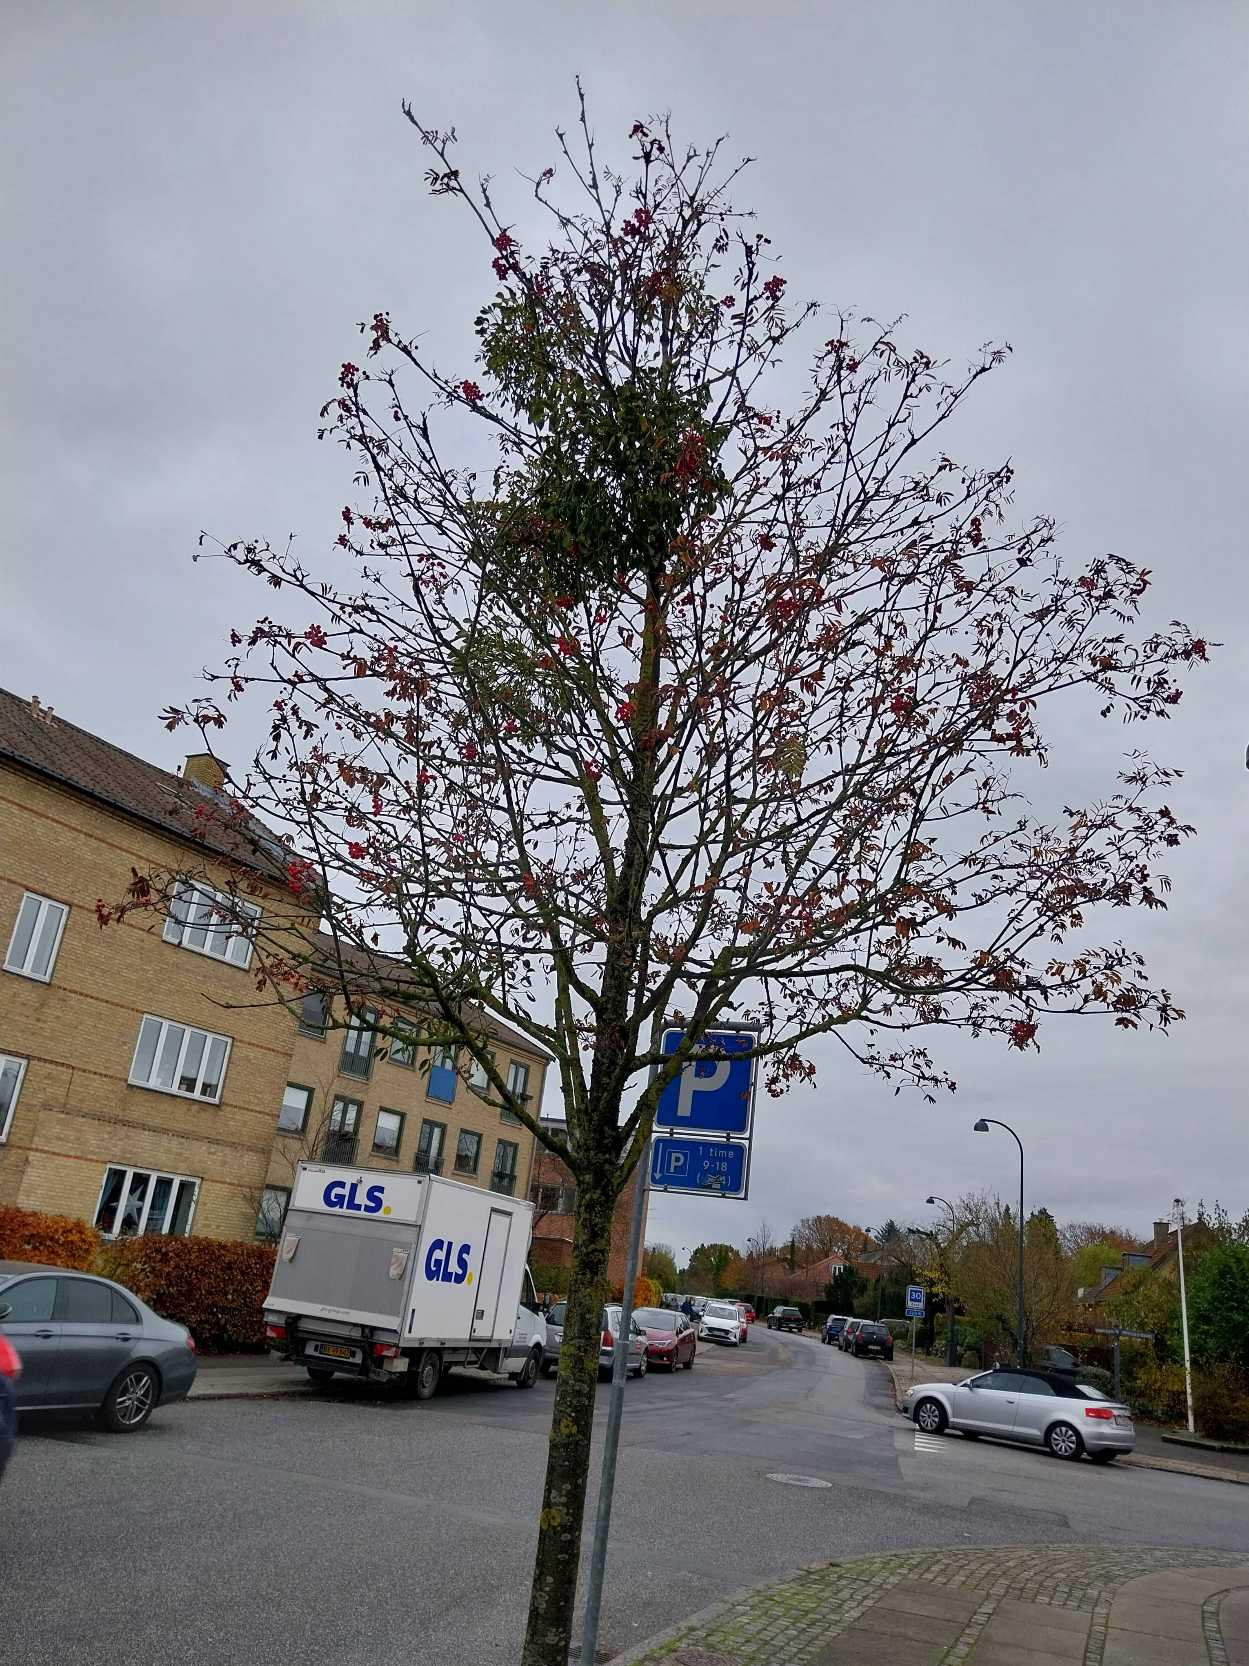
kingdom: Plantae
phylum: Tracheophyta
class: Magnoliopsida
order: Santalales
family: Viscaceae
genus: Viscum
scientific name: Viscum album
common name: Mistelten
